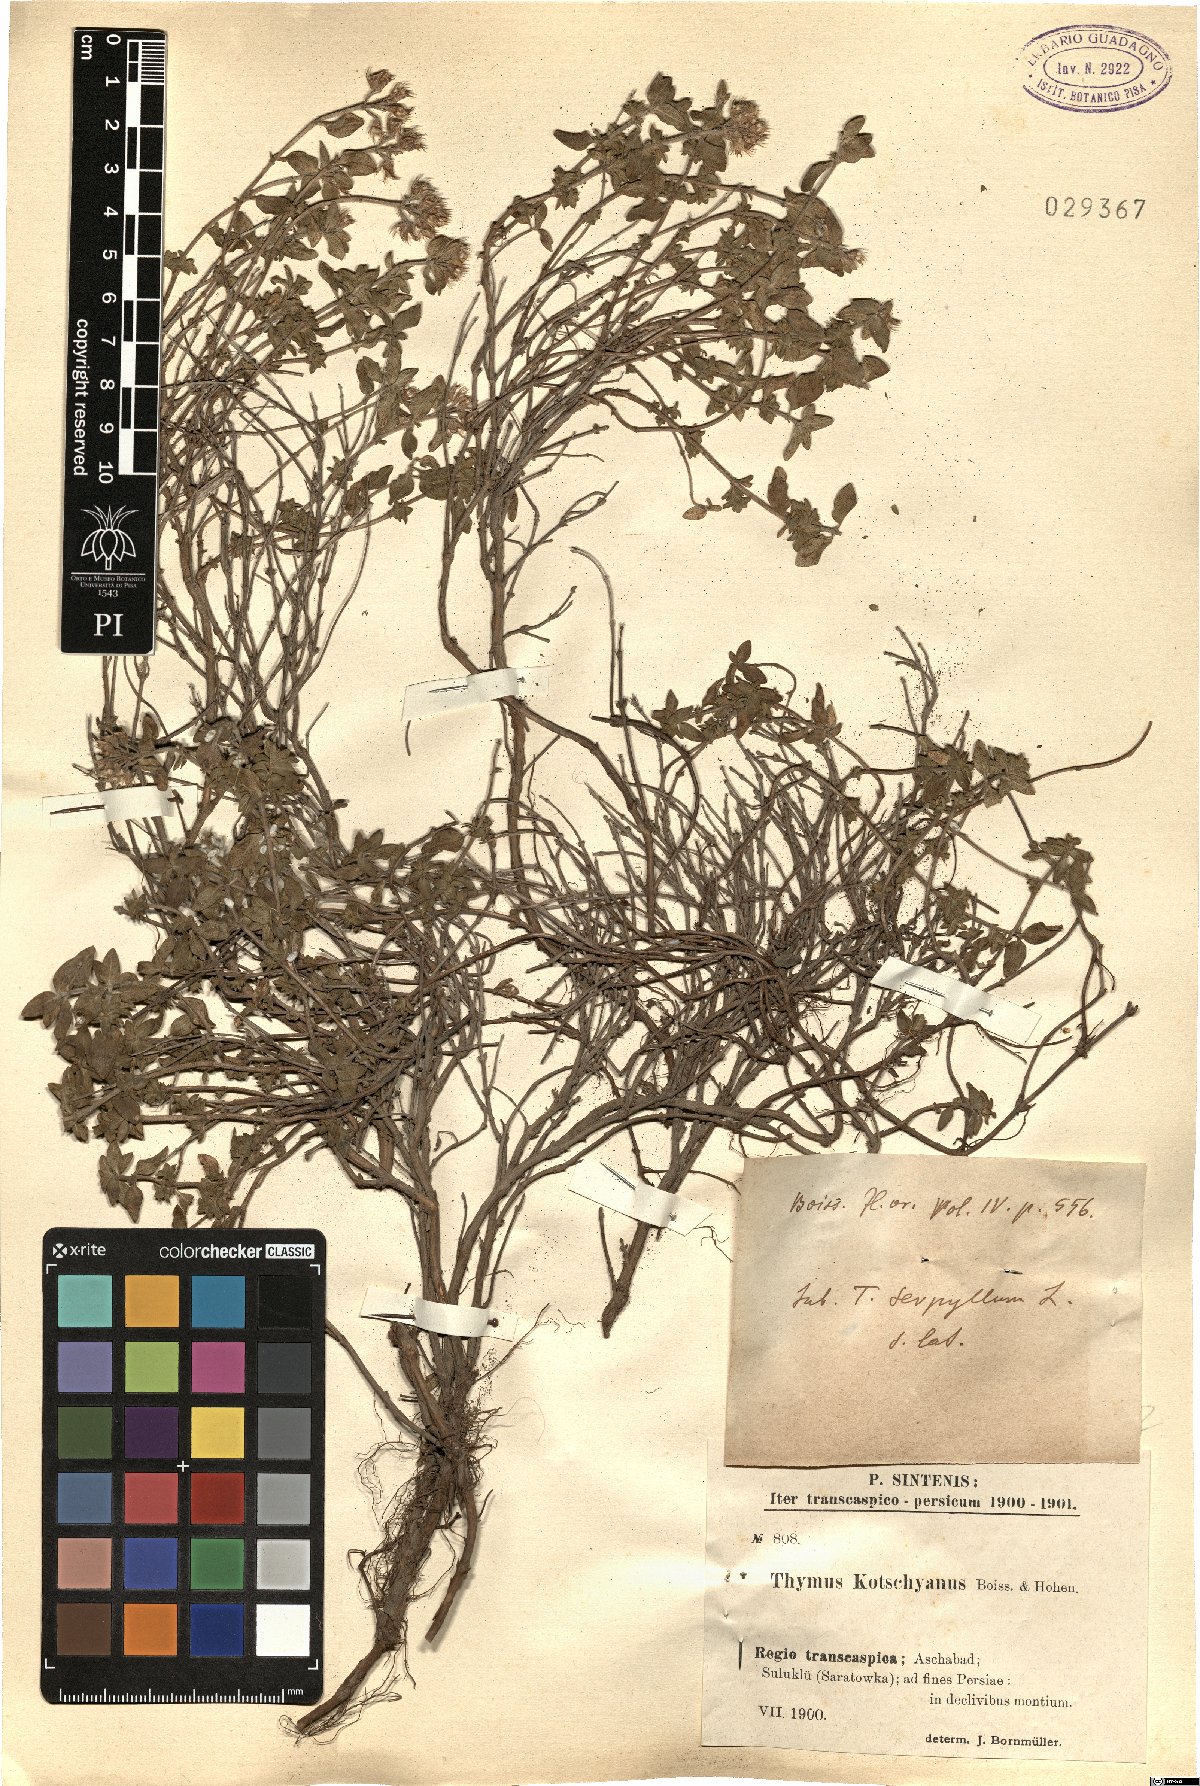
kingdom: Plantae
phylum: Tracheophyta
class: Magnoliopsida
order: Lamiales
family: Lamiaceae
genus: Thymus
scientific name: Thymus kotschyanus
